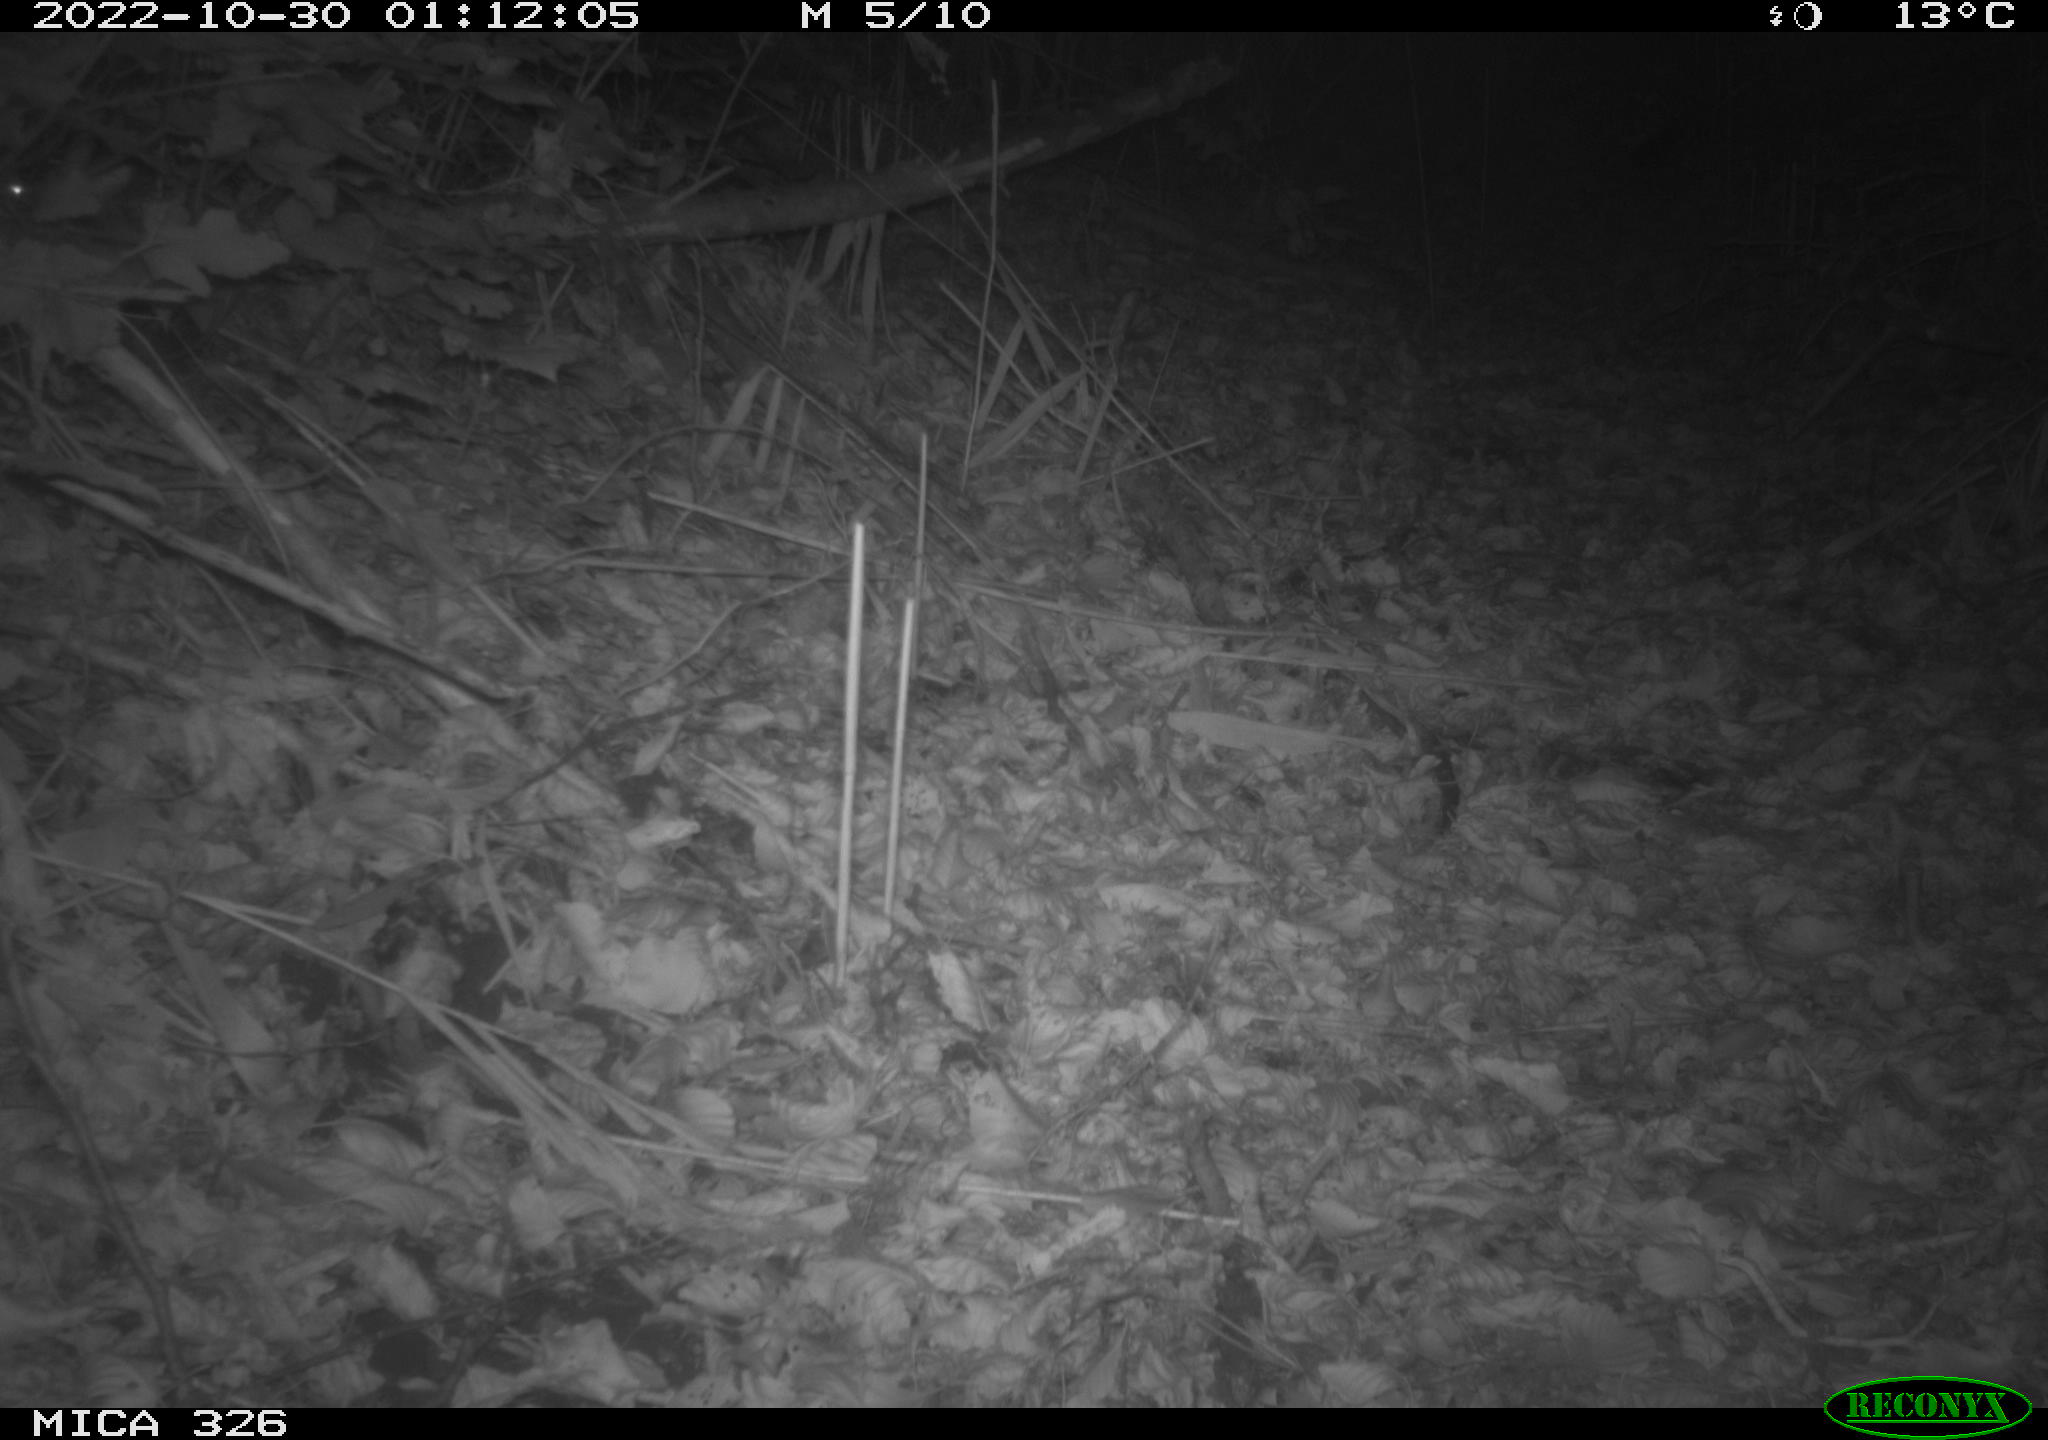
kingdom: Animalia
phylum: Chordata
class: Mammalia
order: Rodentia
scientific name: Rodentia
